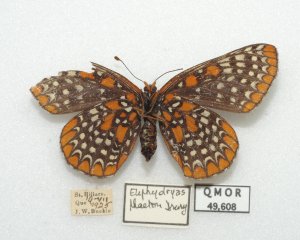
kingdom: Animalia
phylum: Arthropoda
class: Insecta
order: Lepidoptera
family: Nymphalidae
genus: Euphydryas
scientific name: Euphydryas phaeton
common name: Baltimore Checkerspot
